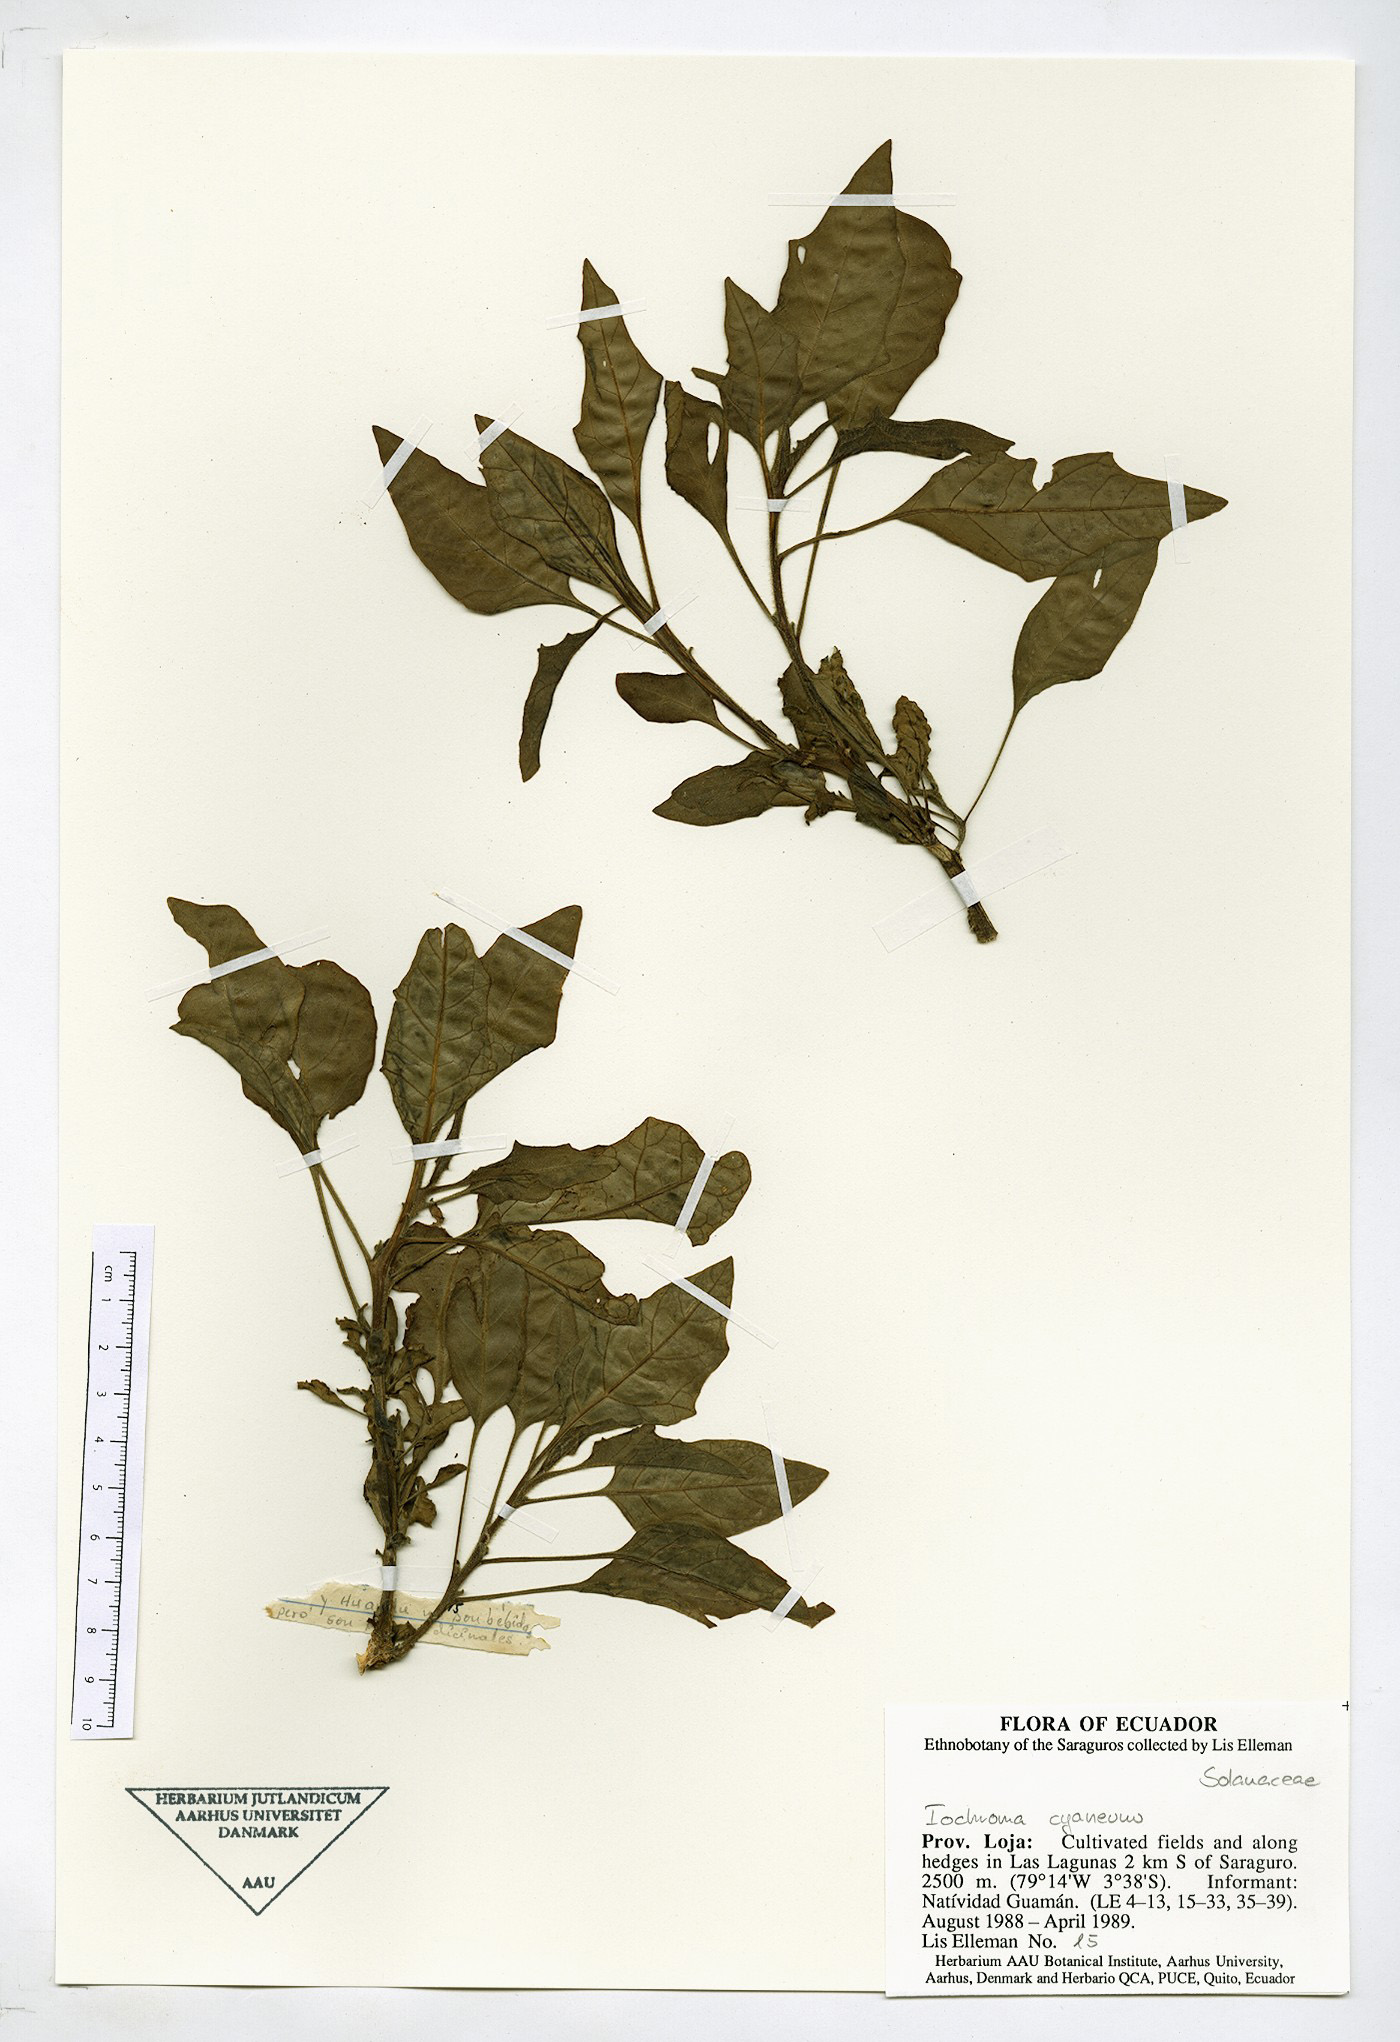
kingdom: Plantae
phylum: Tracheophyta
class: Magnoliopsida
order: Solanales
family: Solanaceae
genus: Iochroma
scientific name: Iochroma cyaneum
